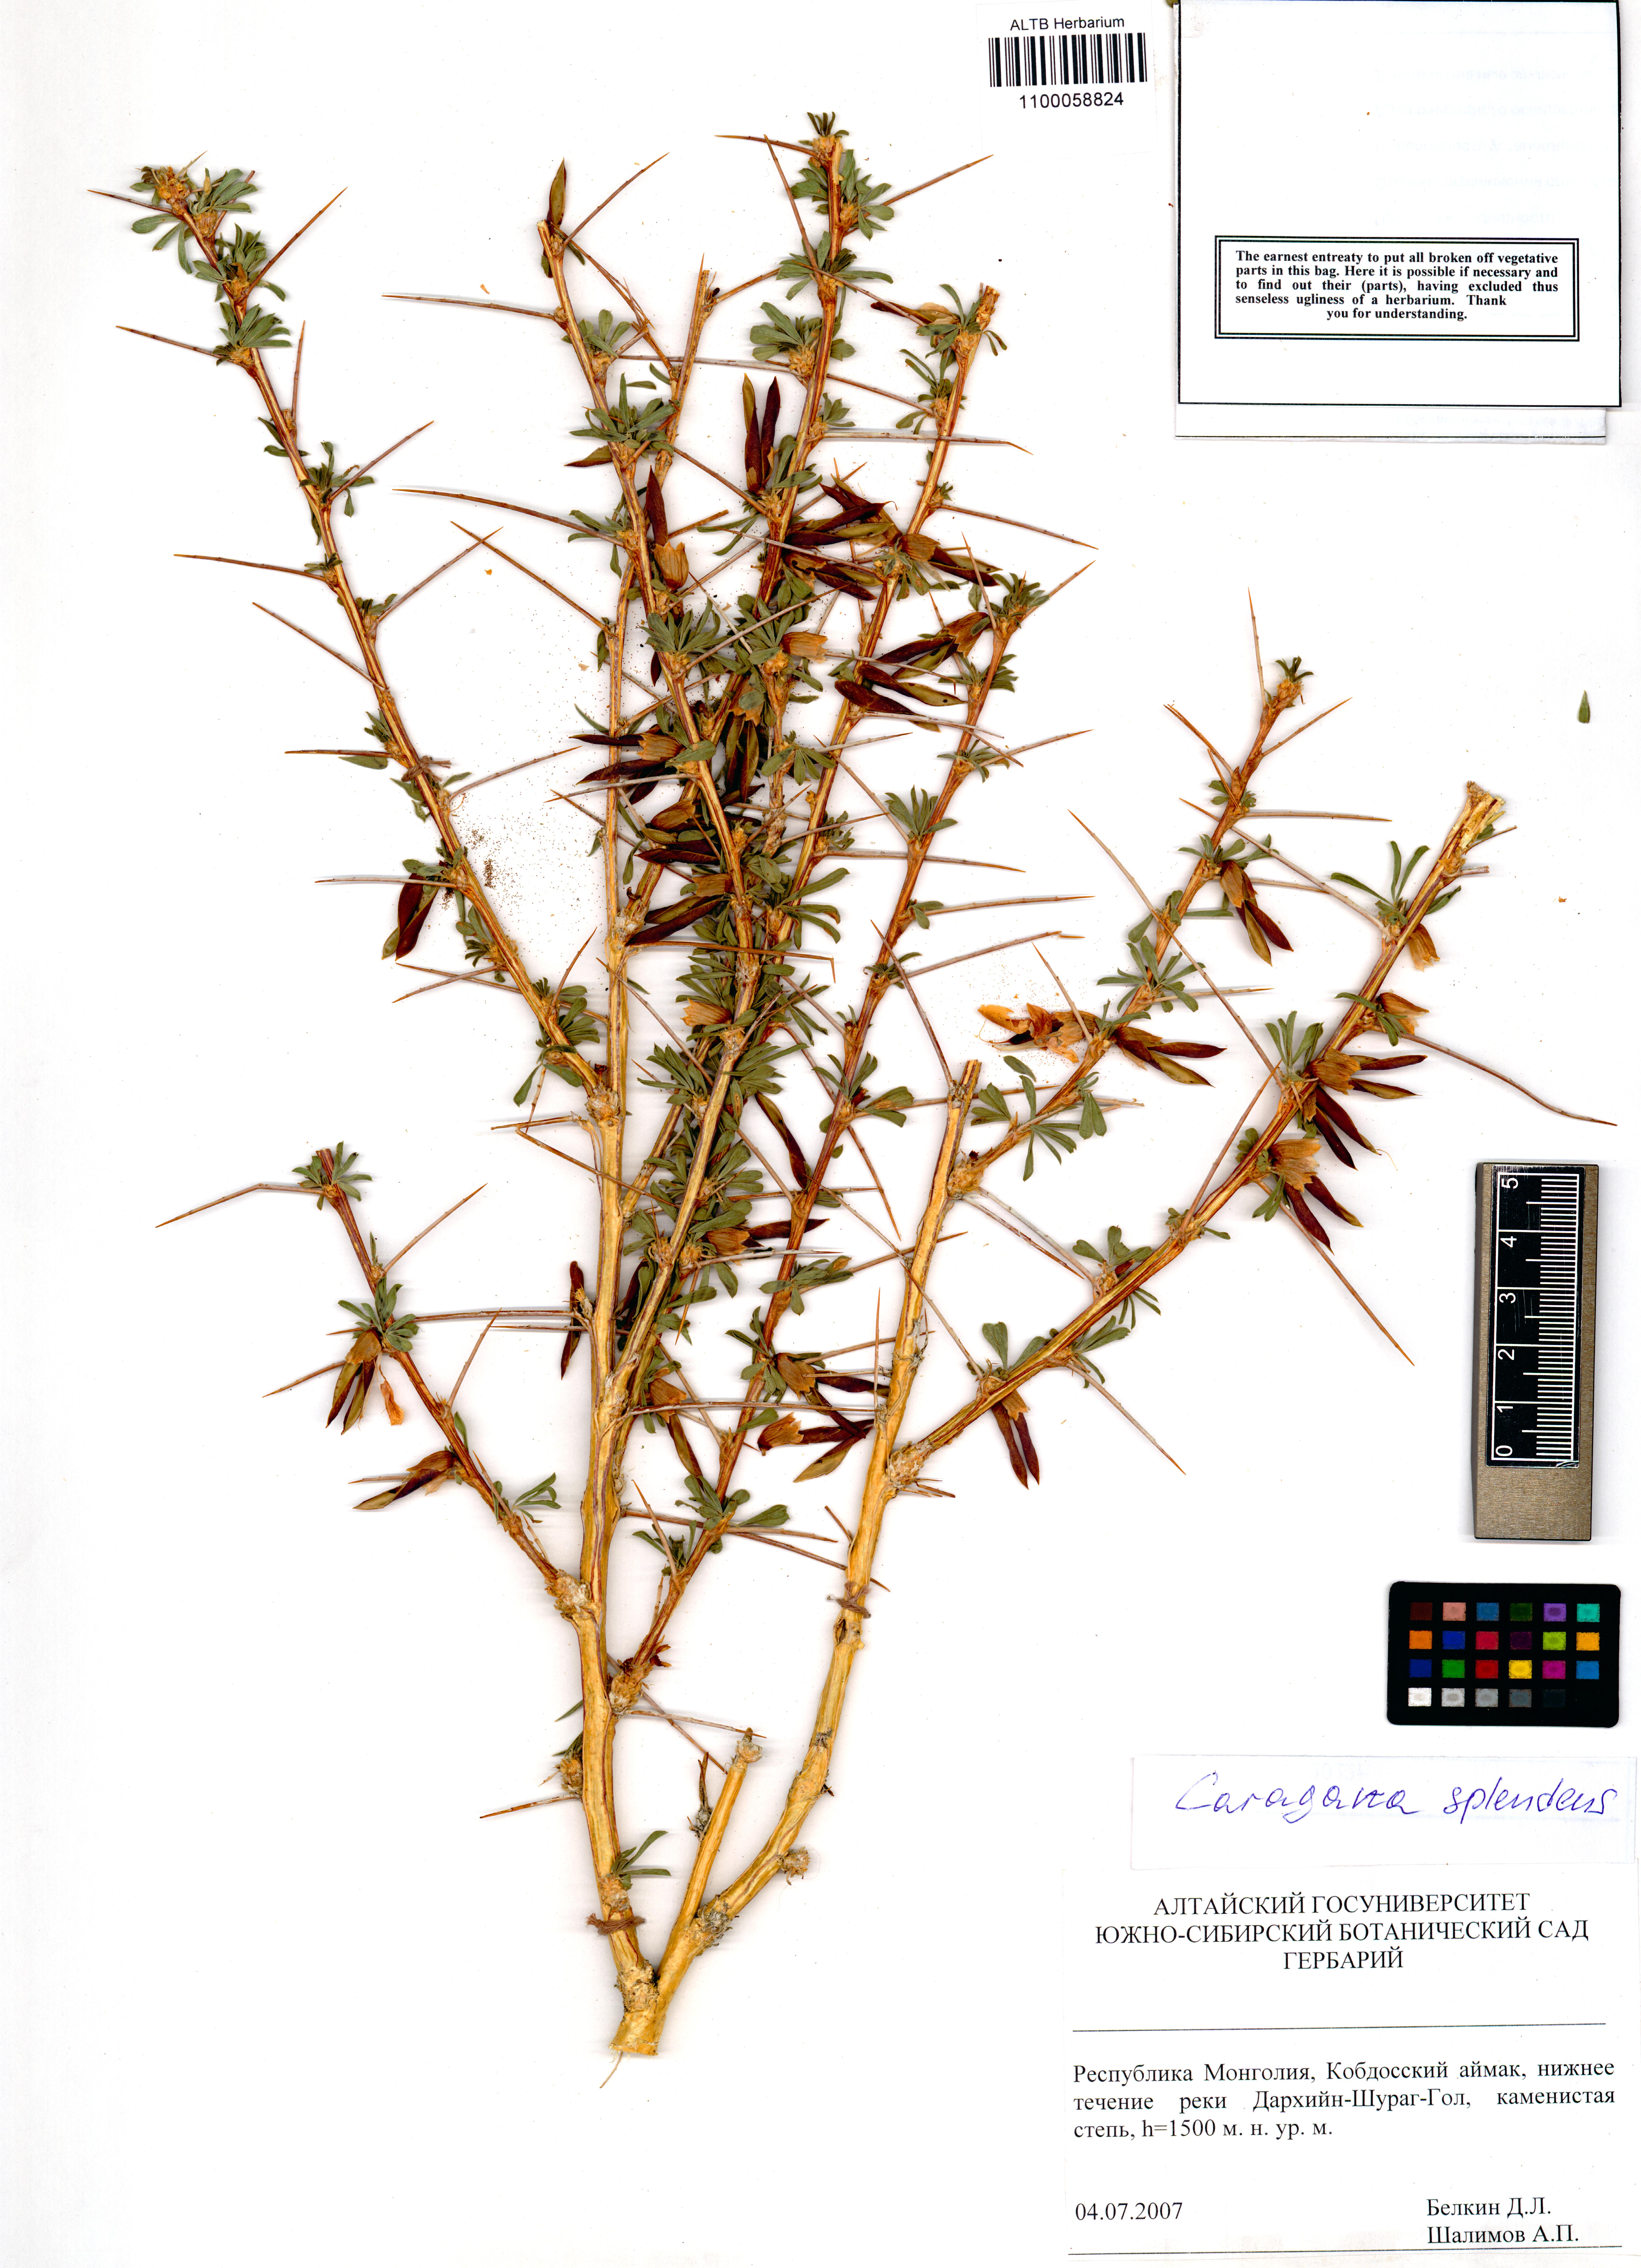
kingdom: Plantae
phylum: Tracheophyta
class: Magnoliopsida
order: Fabales
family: Fabaceae
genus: Caragana
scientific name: Caragana pygmaea
